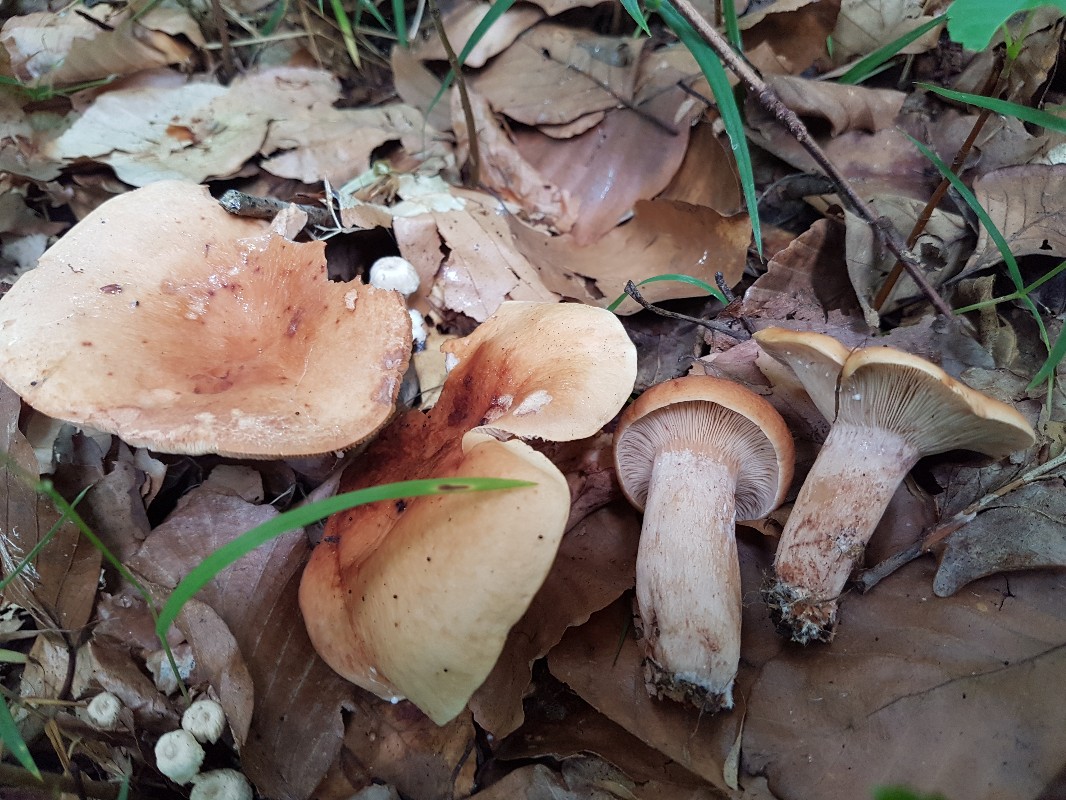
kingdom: Fungi
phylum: Basidiomycota
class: Agaricomycetes
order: Russulales
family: Russulaceae
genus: Lactarius
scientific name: Lactarius rubrocinctus
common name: halsbånd-mælkehat
